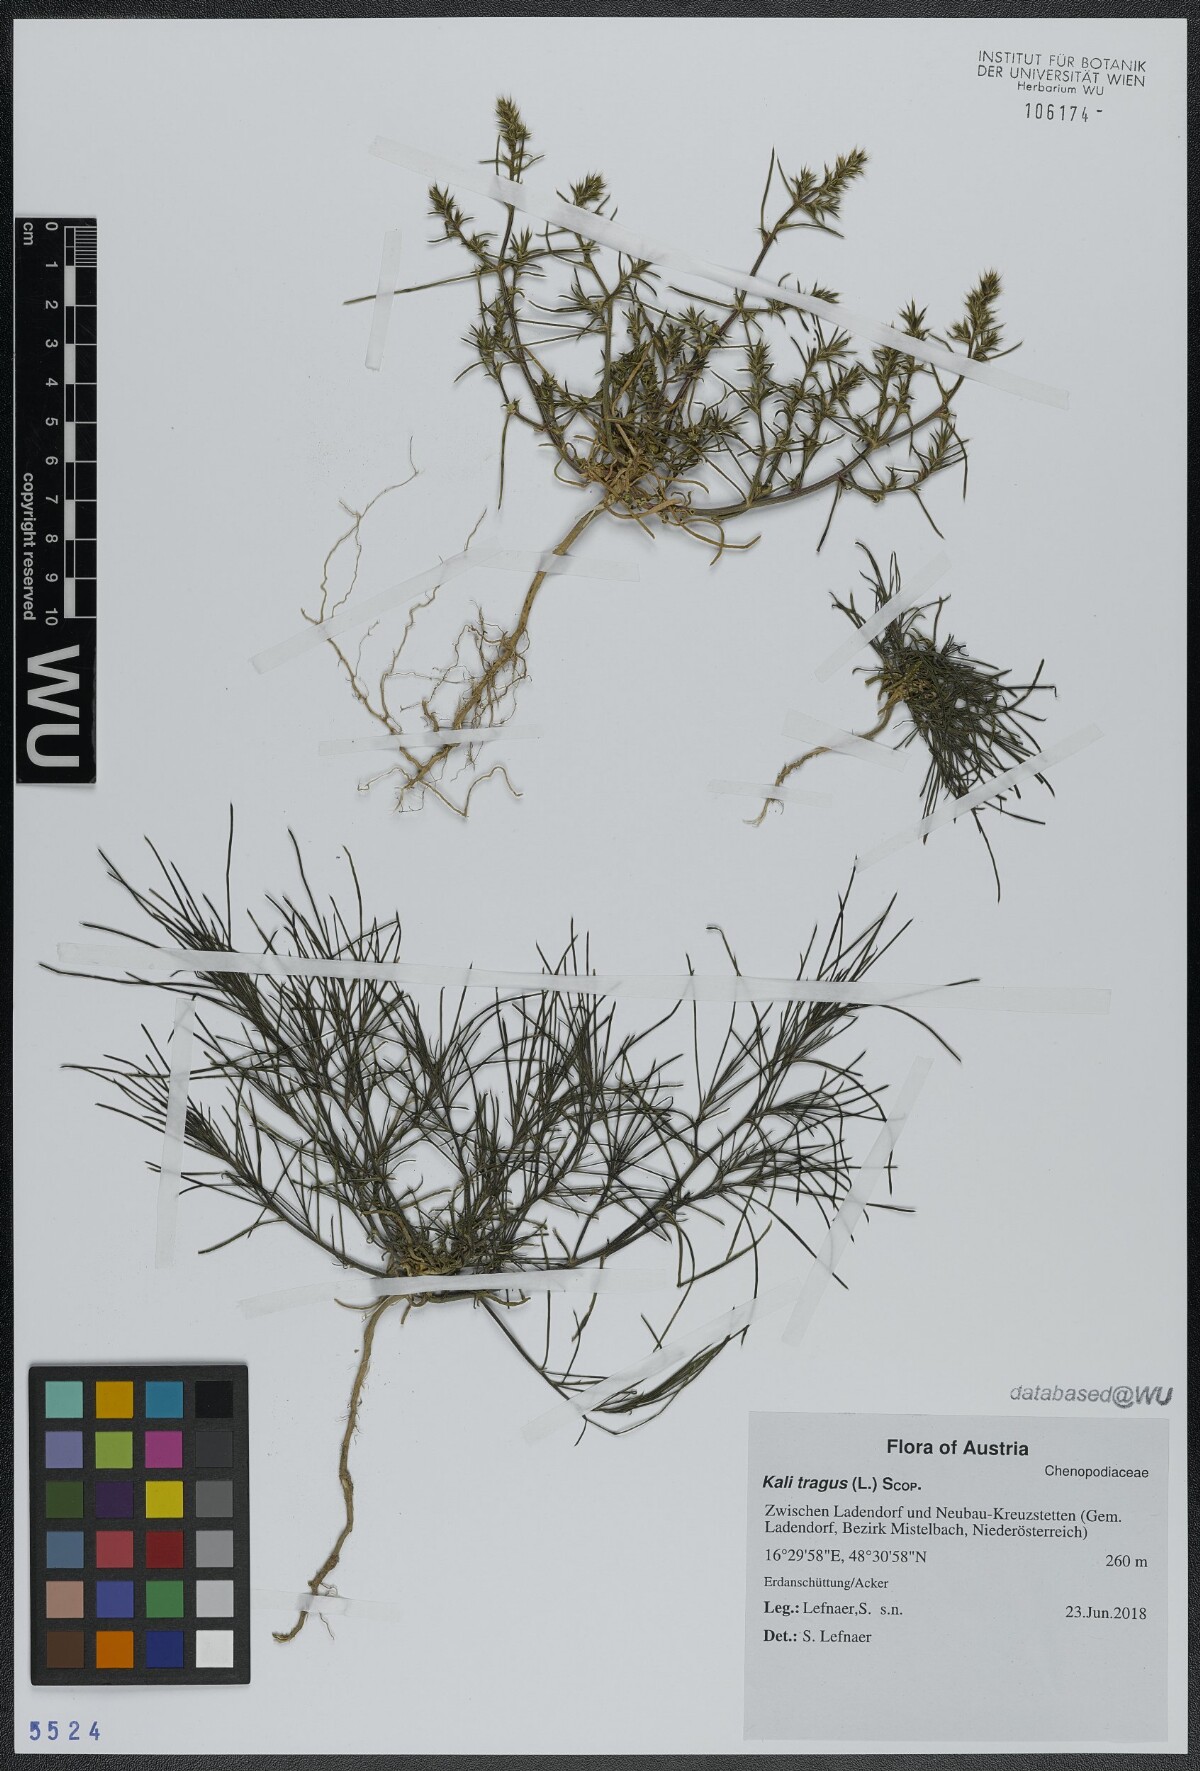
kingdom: Plantae
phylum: Tracheophyta
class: Magnoliopsida
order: Caryophyllales
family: Amaranthaceae
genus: Salsola
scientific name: Salsola tragus
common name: Prickly russian thistle
